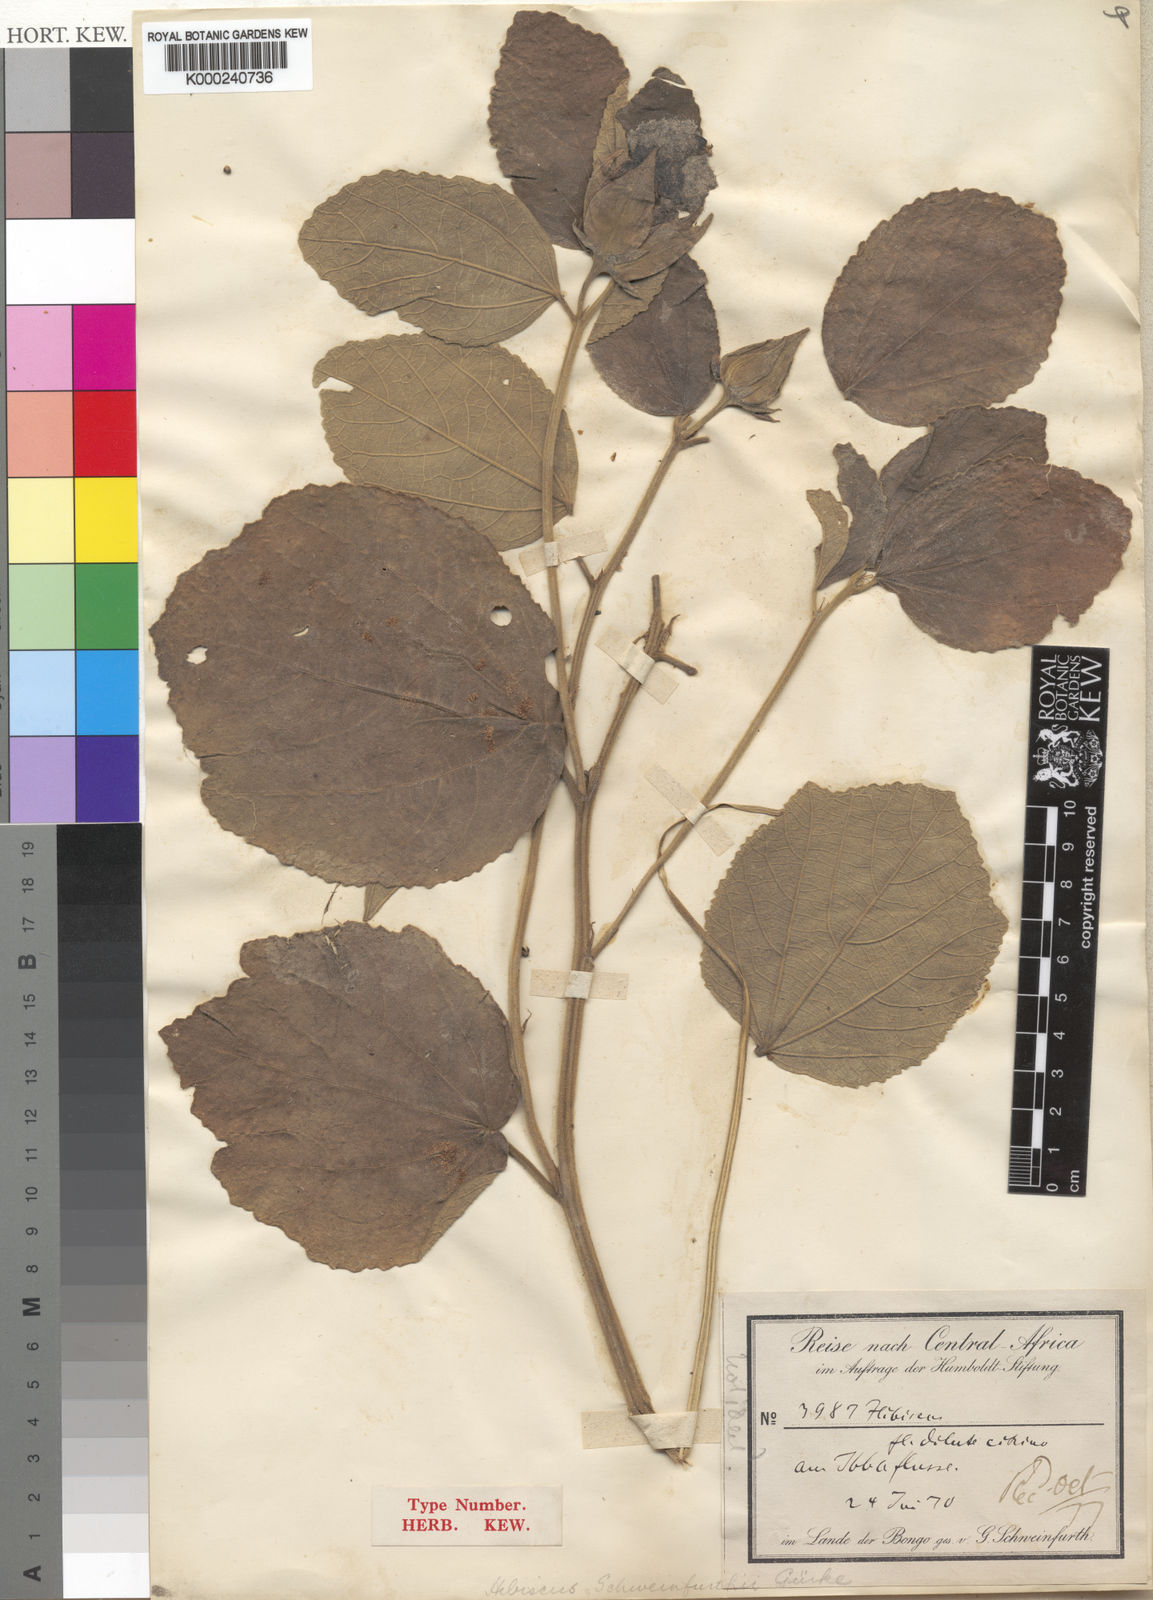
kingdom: Plantae
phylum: Tracheophyta
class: Magnoliopsida
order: Malvales
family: Malvaceae
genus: Hibiscus
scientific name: Hibiscus
